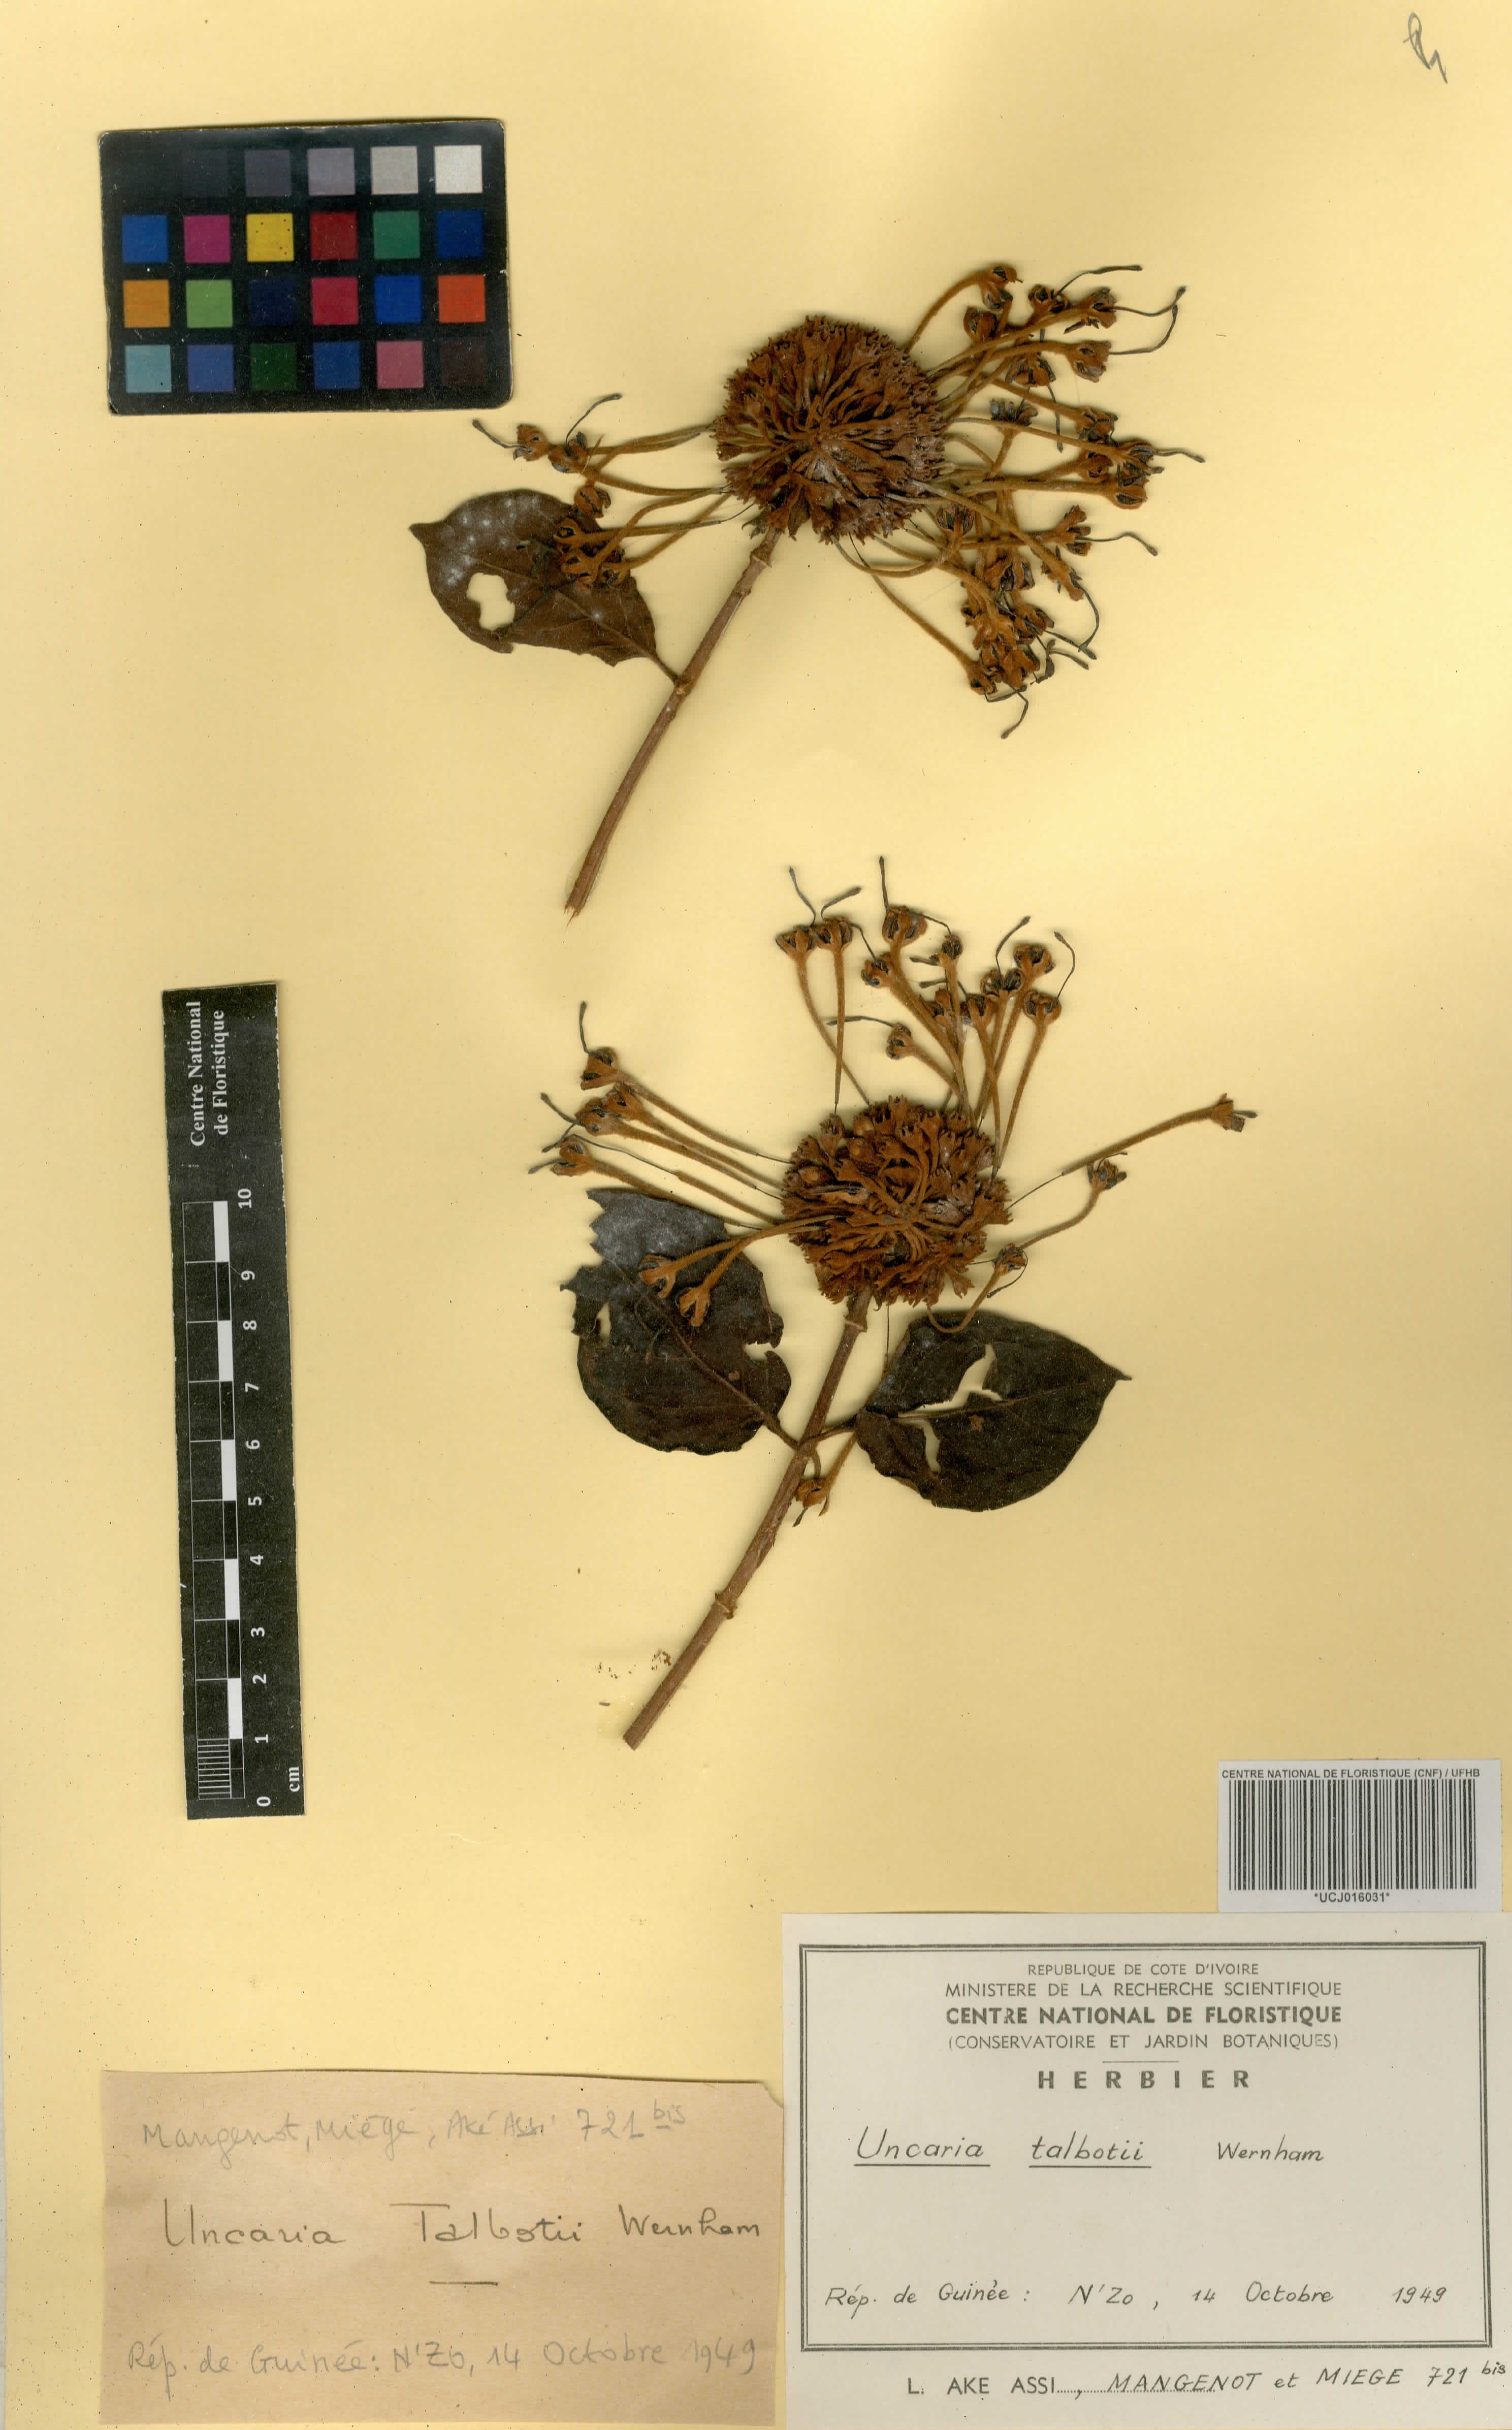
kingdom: Plantae
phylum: Tracheophyta
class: Magnoliopsida
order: Gentianales
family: Rubiaceae
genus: Uncaria
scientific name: Uncaria talbotii
